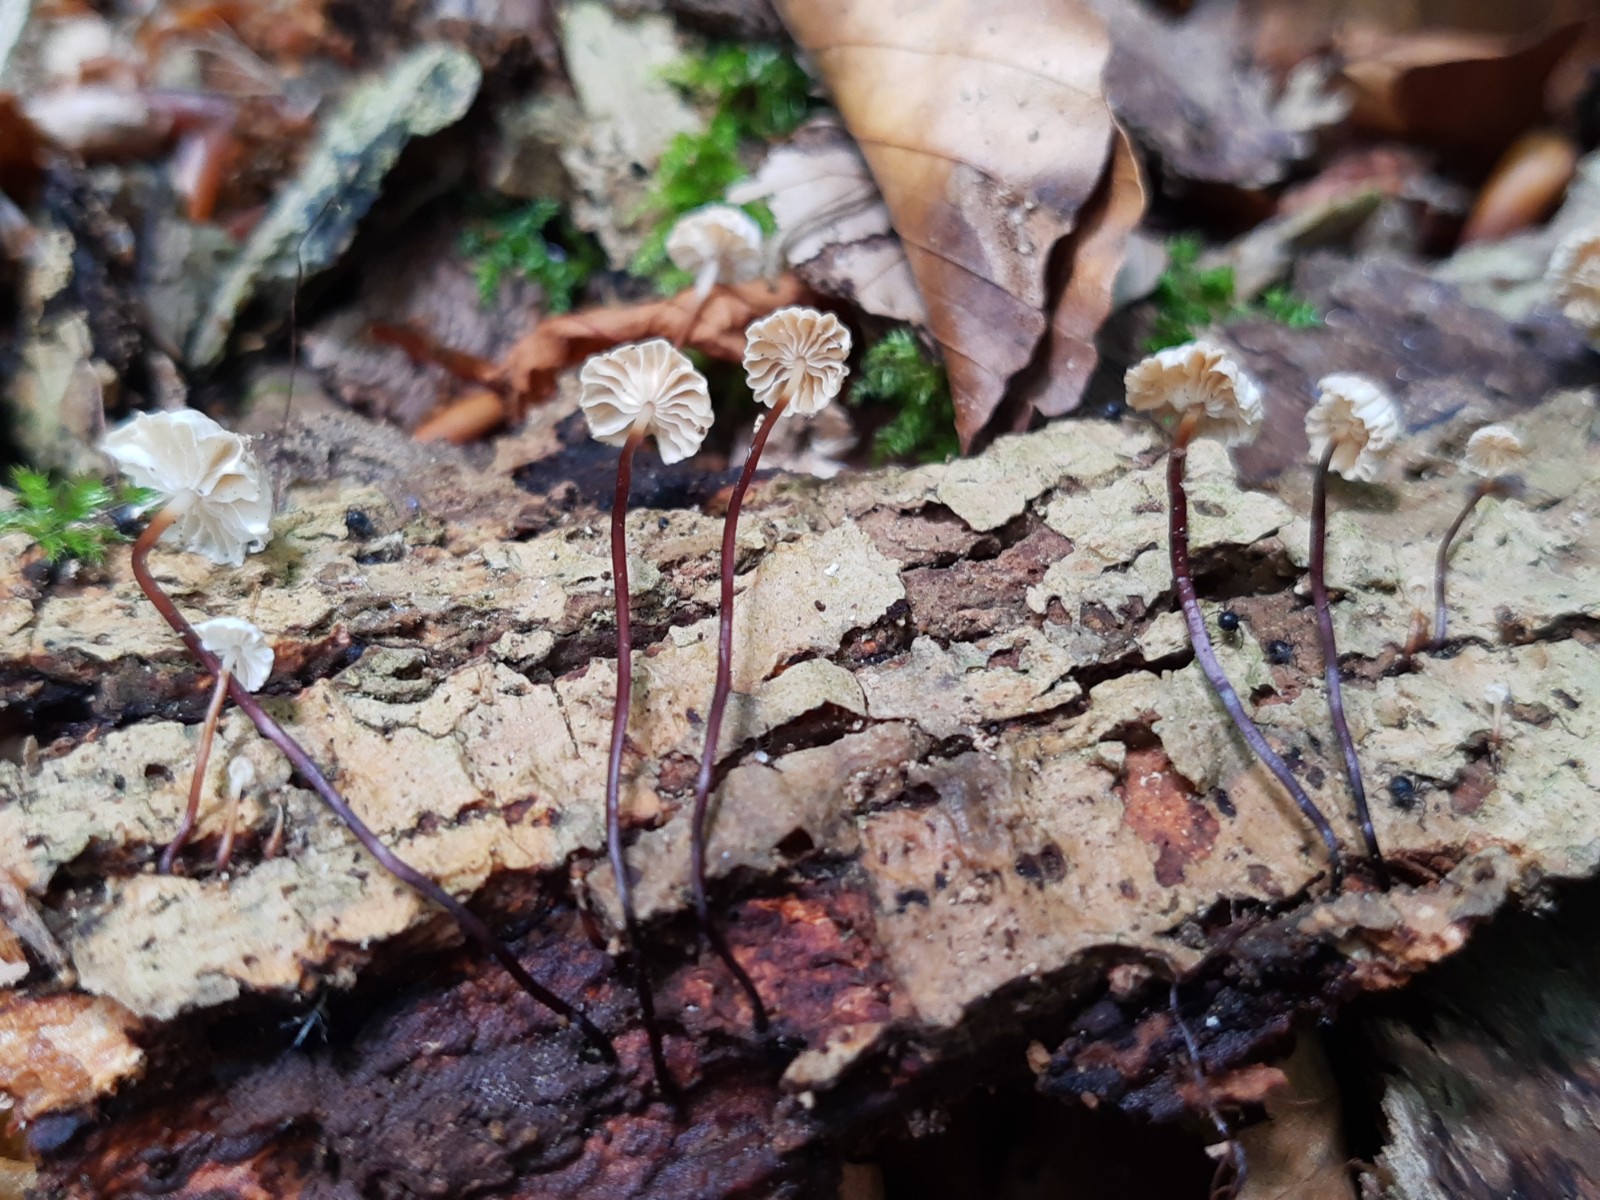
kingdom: Fungi
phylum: Basidiomycota
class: Agaricomycetes
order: Agaricales
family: Marasmiaceae
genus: Marasmius
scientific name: Marasmius rotula
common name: hjul-bruskhat
